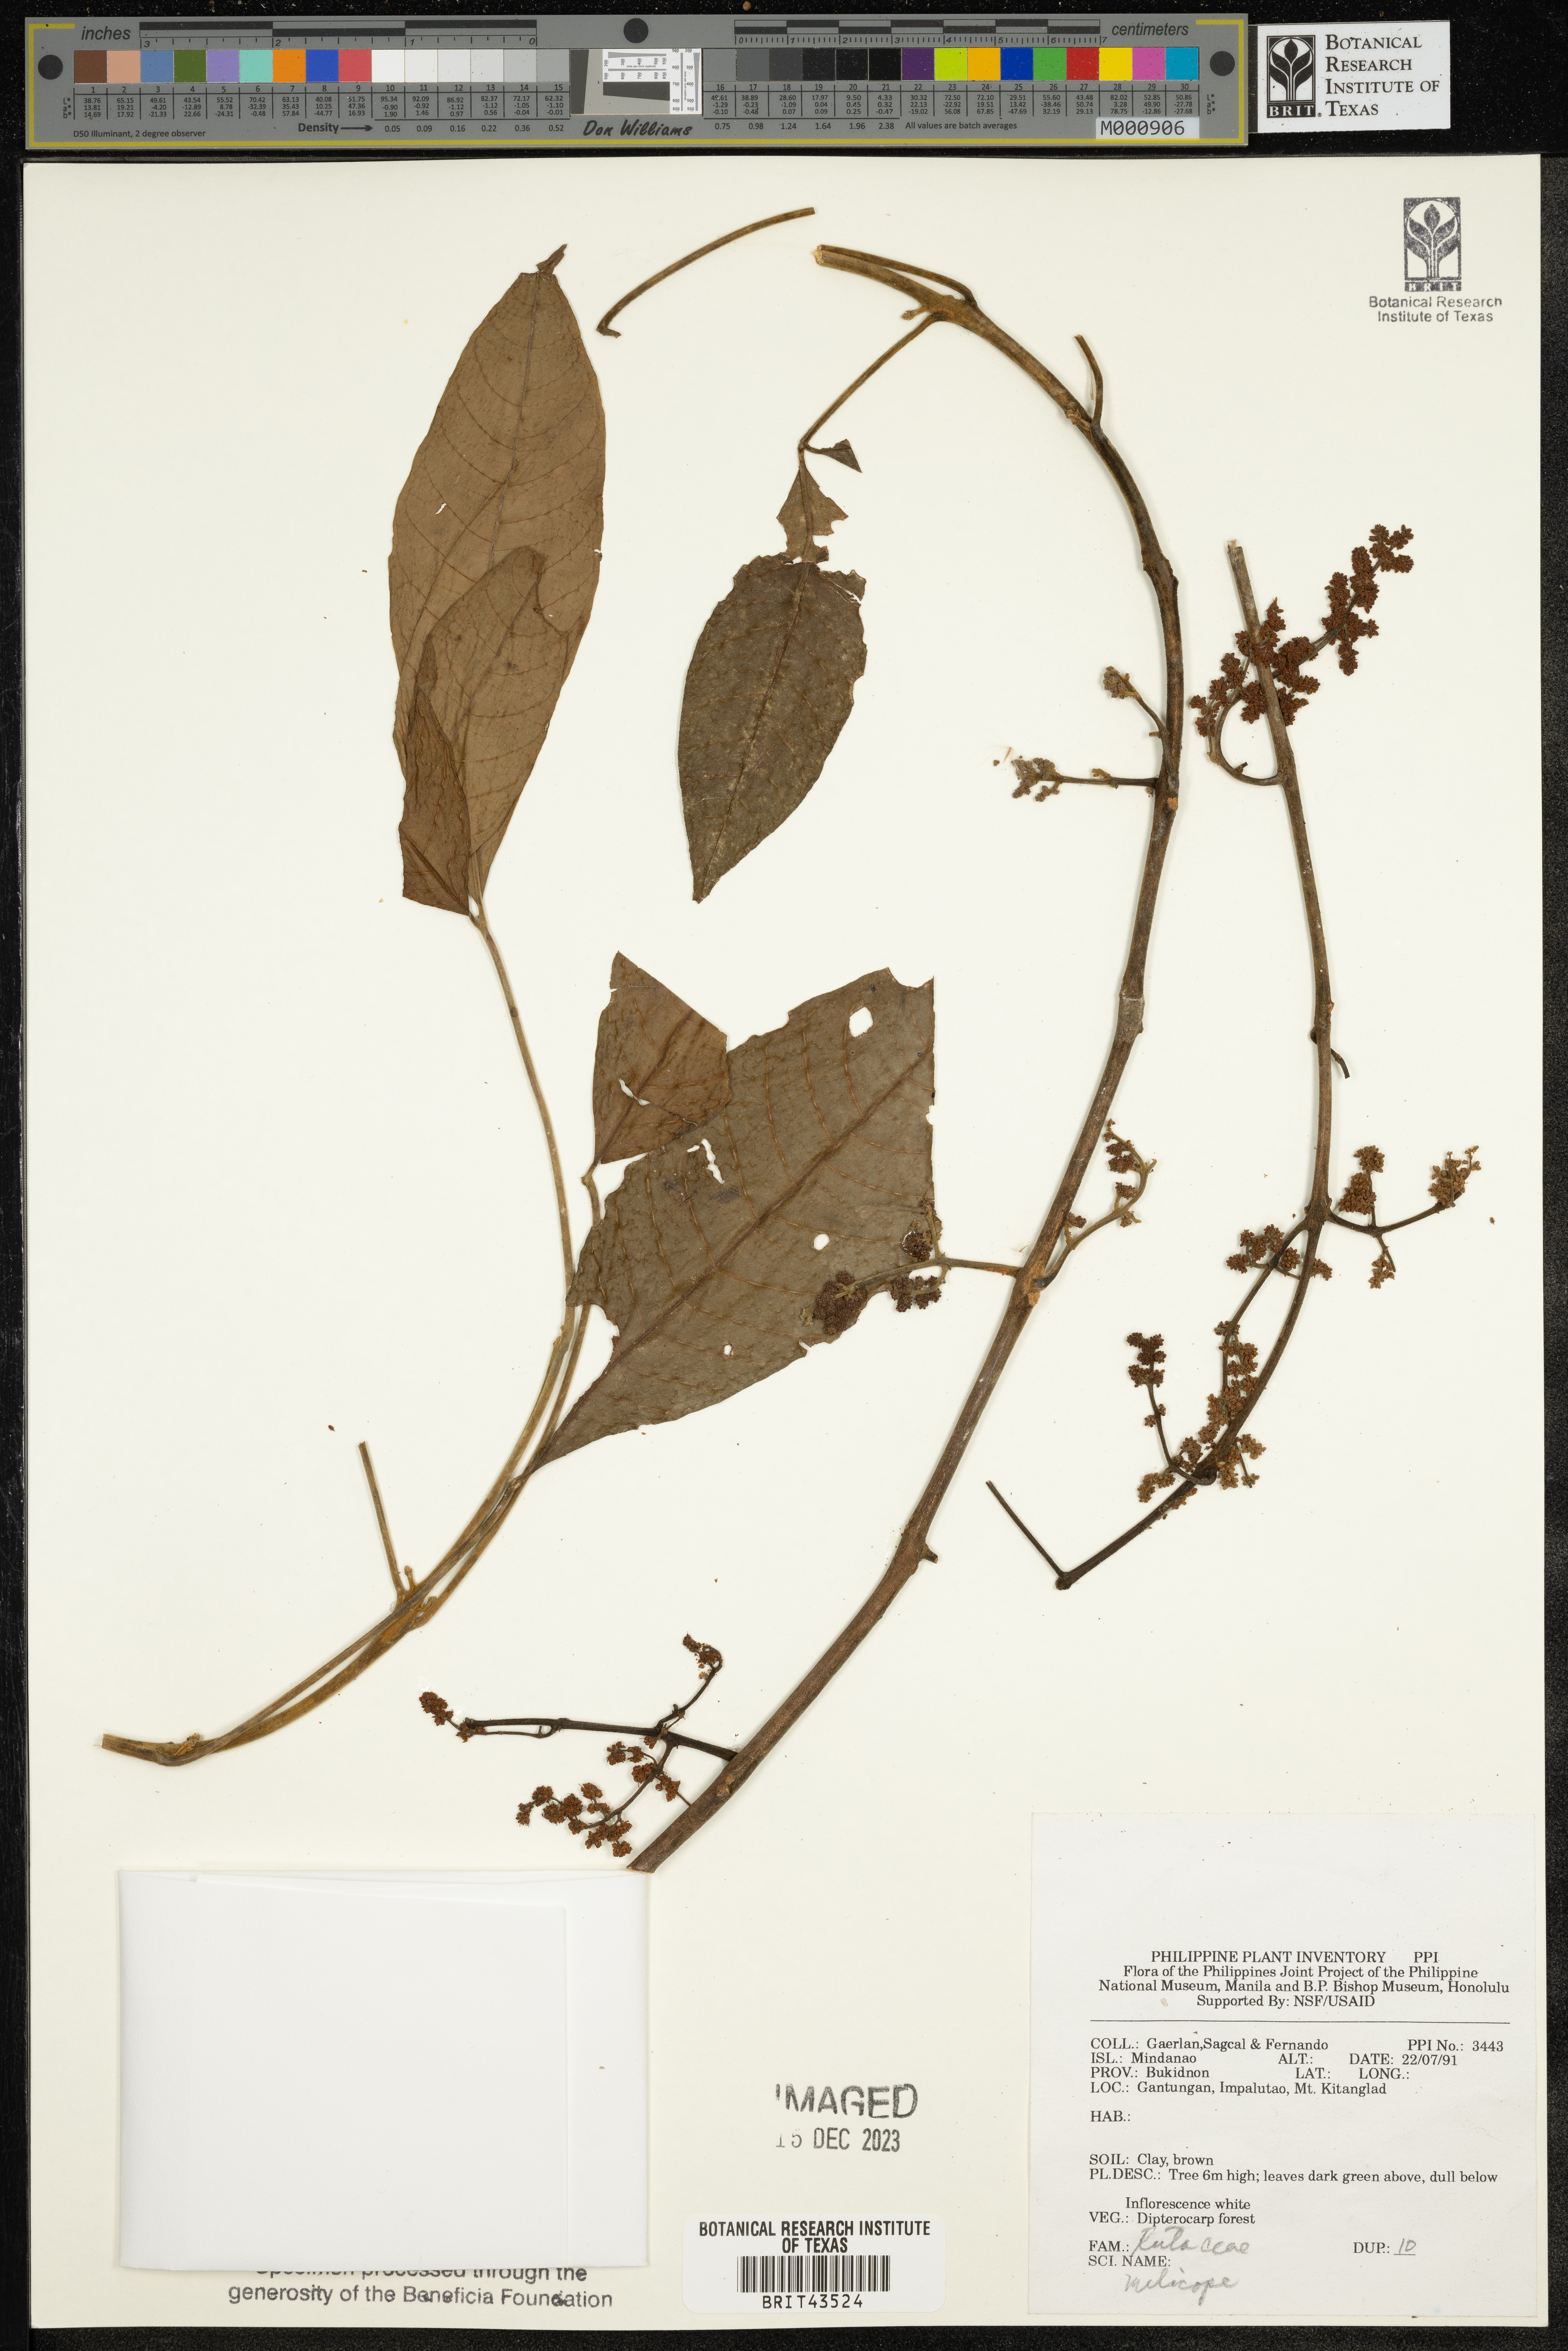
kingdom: Plantae
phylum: Tracheophyta
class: Magnoliopsida
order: Sapindales
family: Rutaceae
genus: Melicope
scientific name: Melicope
